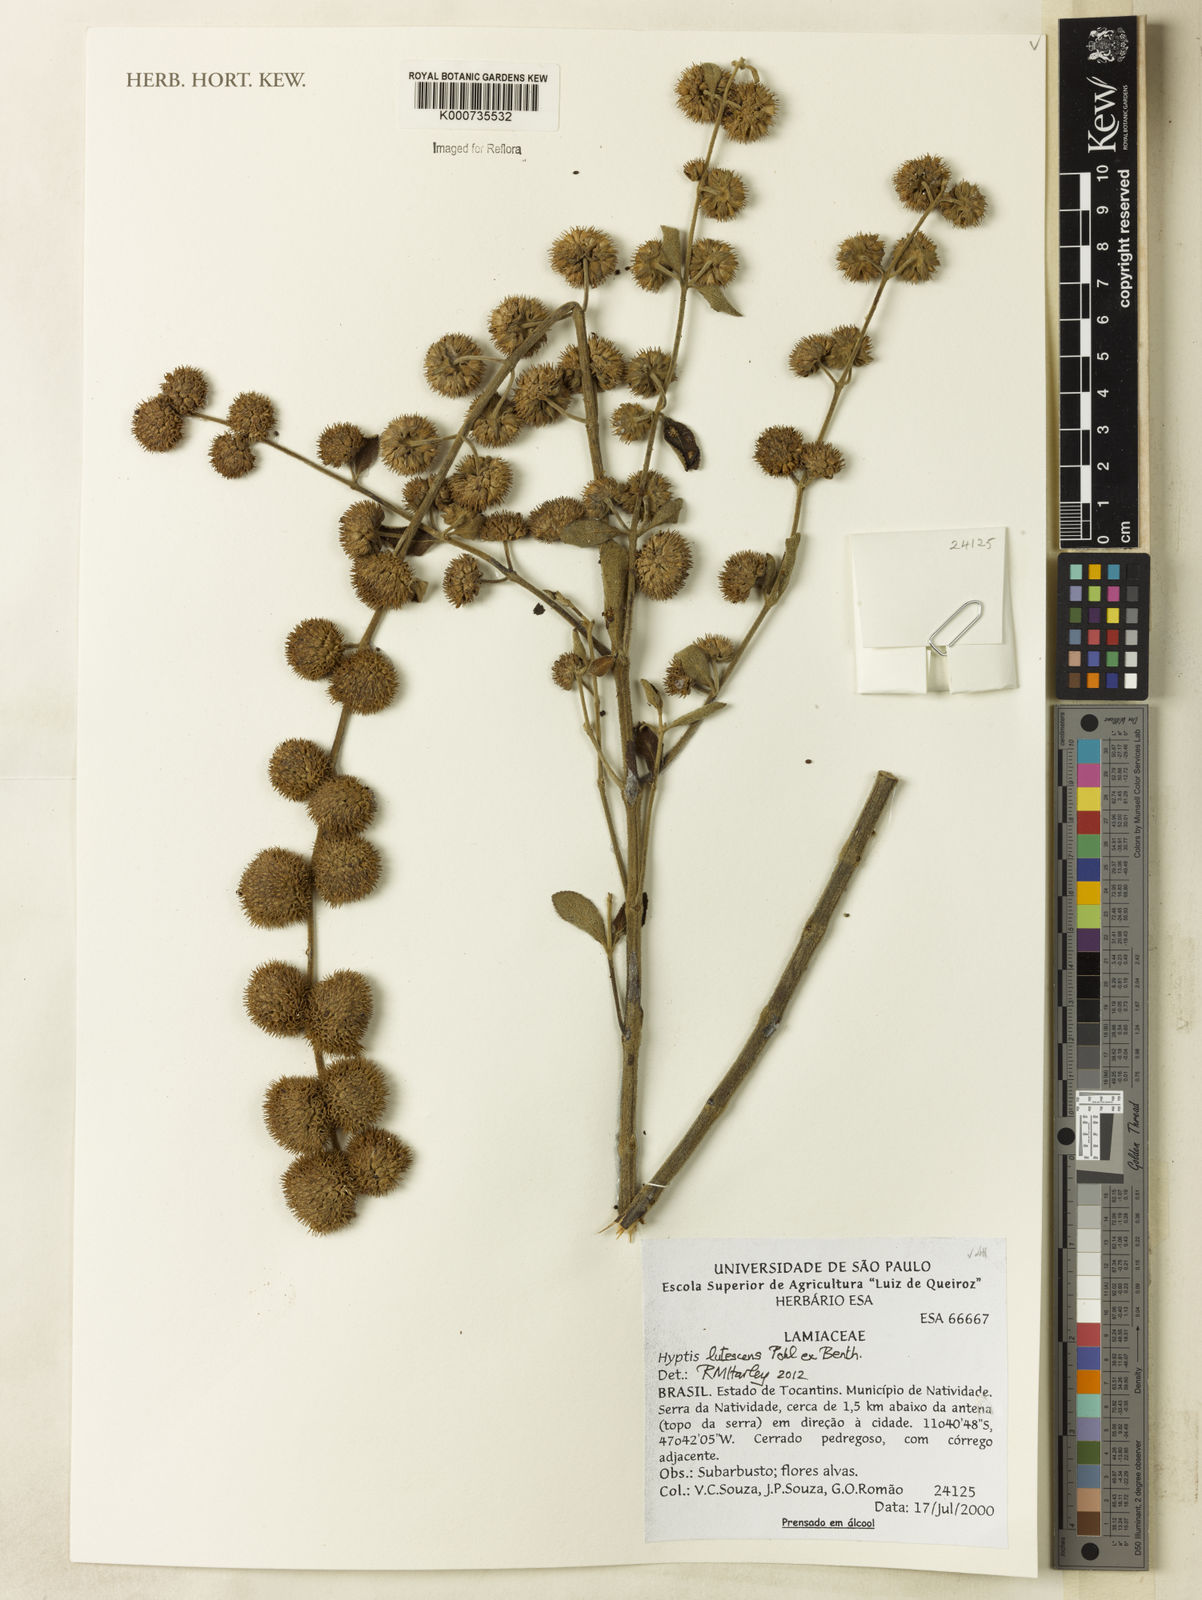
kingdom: Plantae
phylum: Tracheophyta
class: Magnoliopsida
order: Lamiales
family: Lamiaceae
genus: Hyptis
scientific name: Hyptis lutescens
